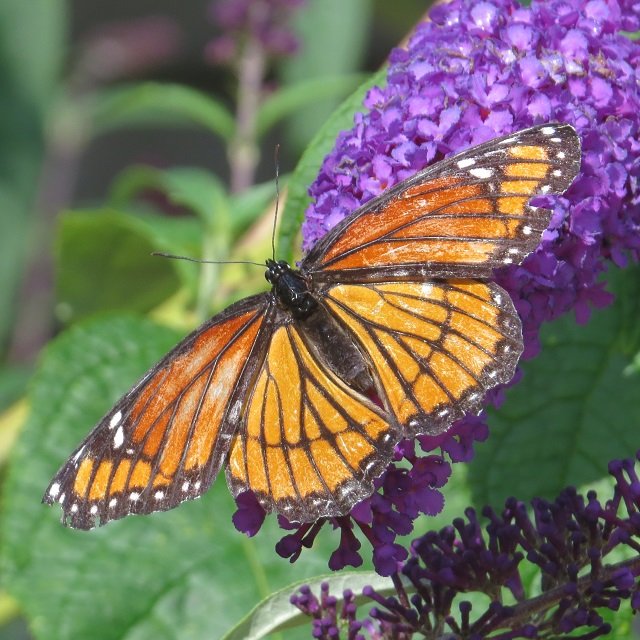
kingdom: Animalia
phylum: Arthropoda
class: Insecta
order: Lepidoptera
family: Nymphalidae
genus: Limenitis
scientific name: Limenitis archippus
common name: Viceroy
